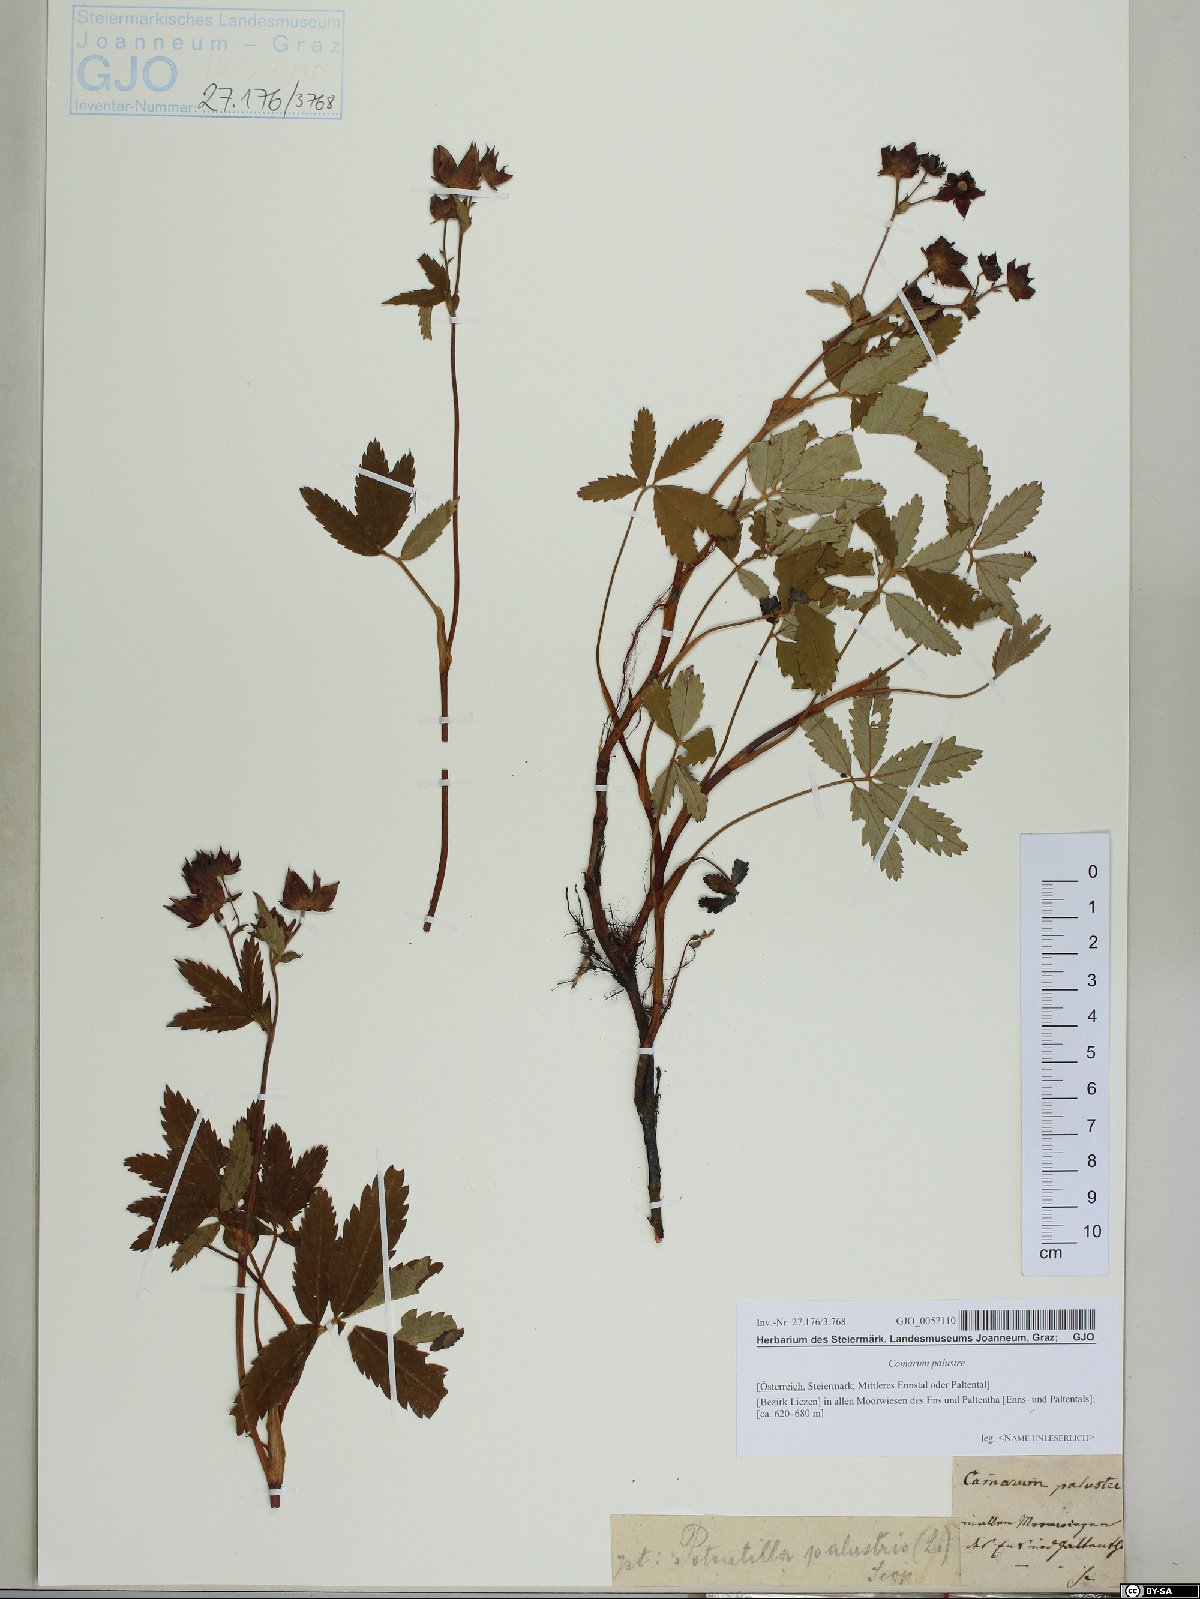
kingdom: Plantae
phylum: Tracheophyta
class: Magnoliopsida
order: Rosales
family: Rosaceae
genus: Comarum
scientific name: Comarum palustre
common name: Marsh cinquefoil
